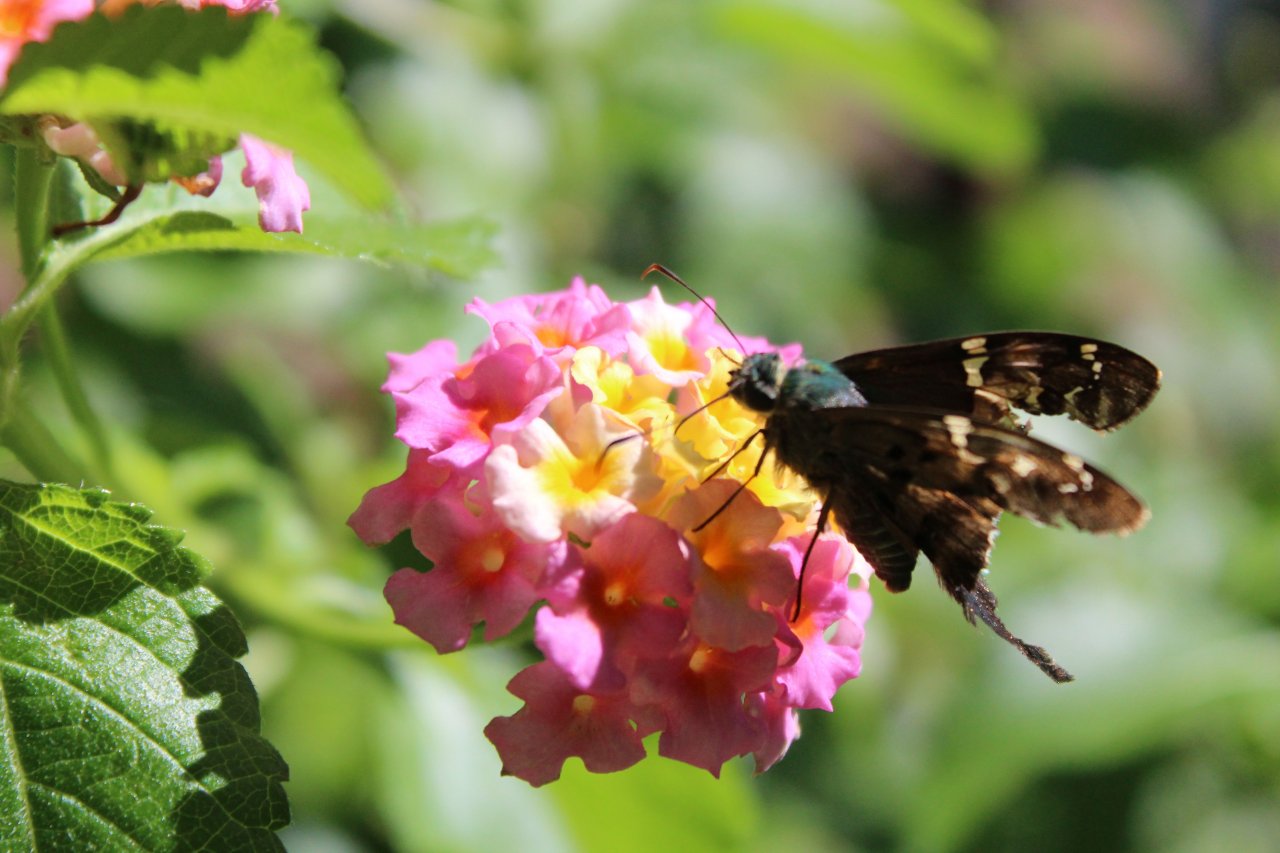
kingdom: Animalia
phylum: Arthropoda
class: Insecta
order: Lepidoptera
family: Hesperiidae
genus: Urbanus
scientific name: Urbanus proteus
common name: Long-tailed Skipper
